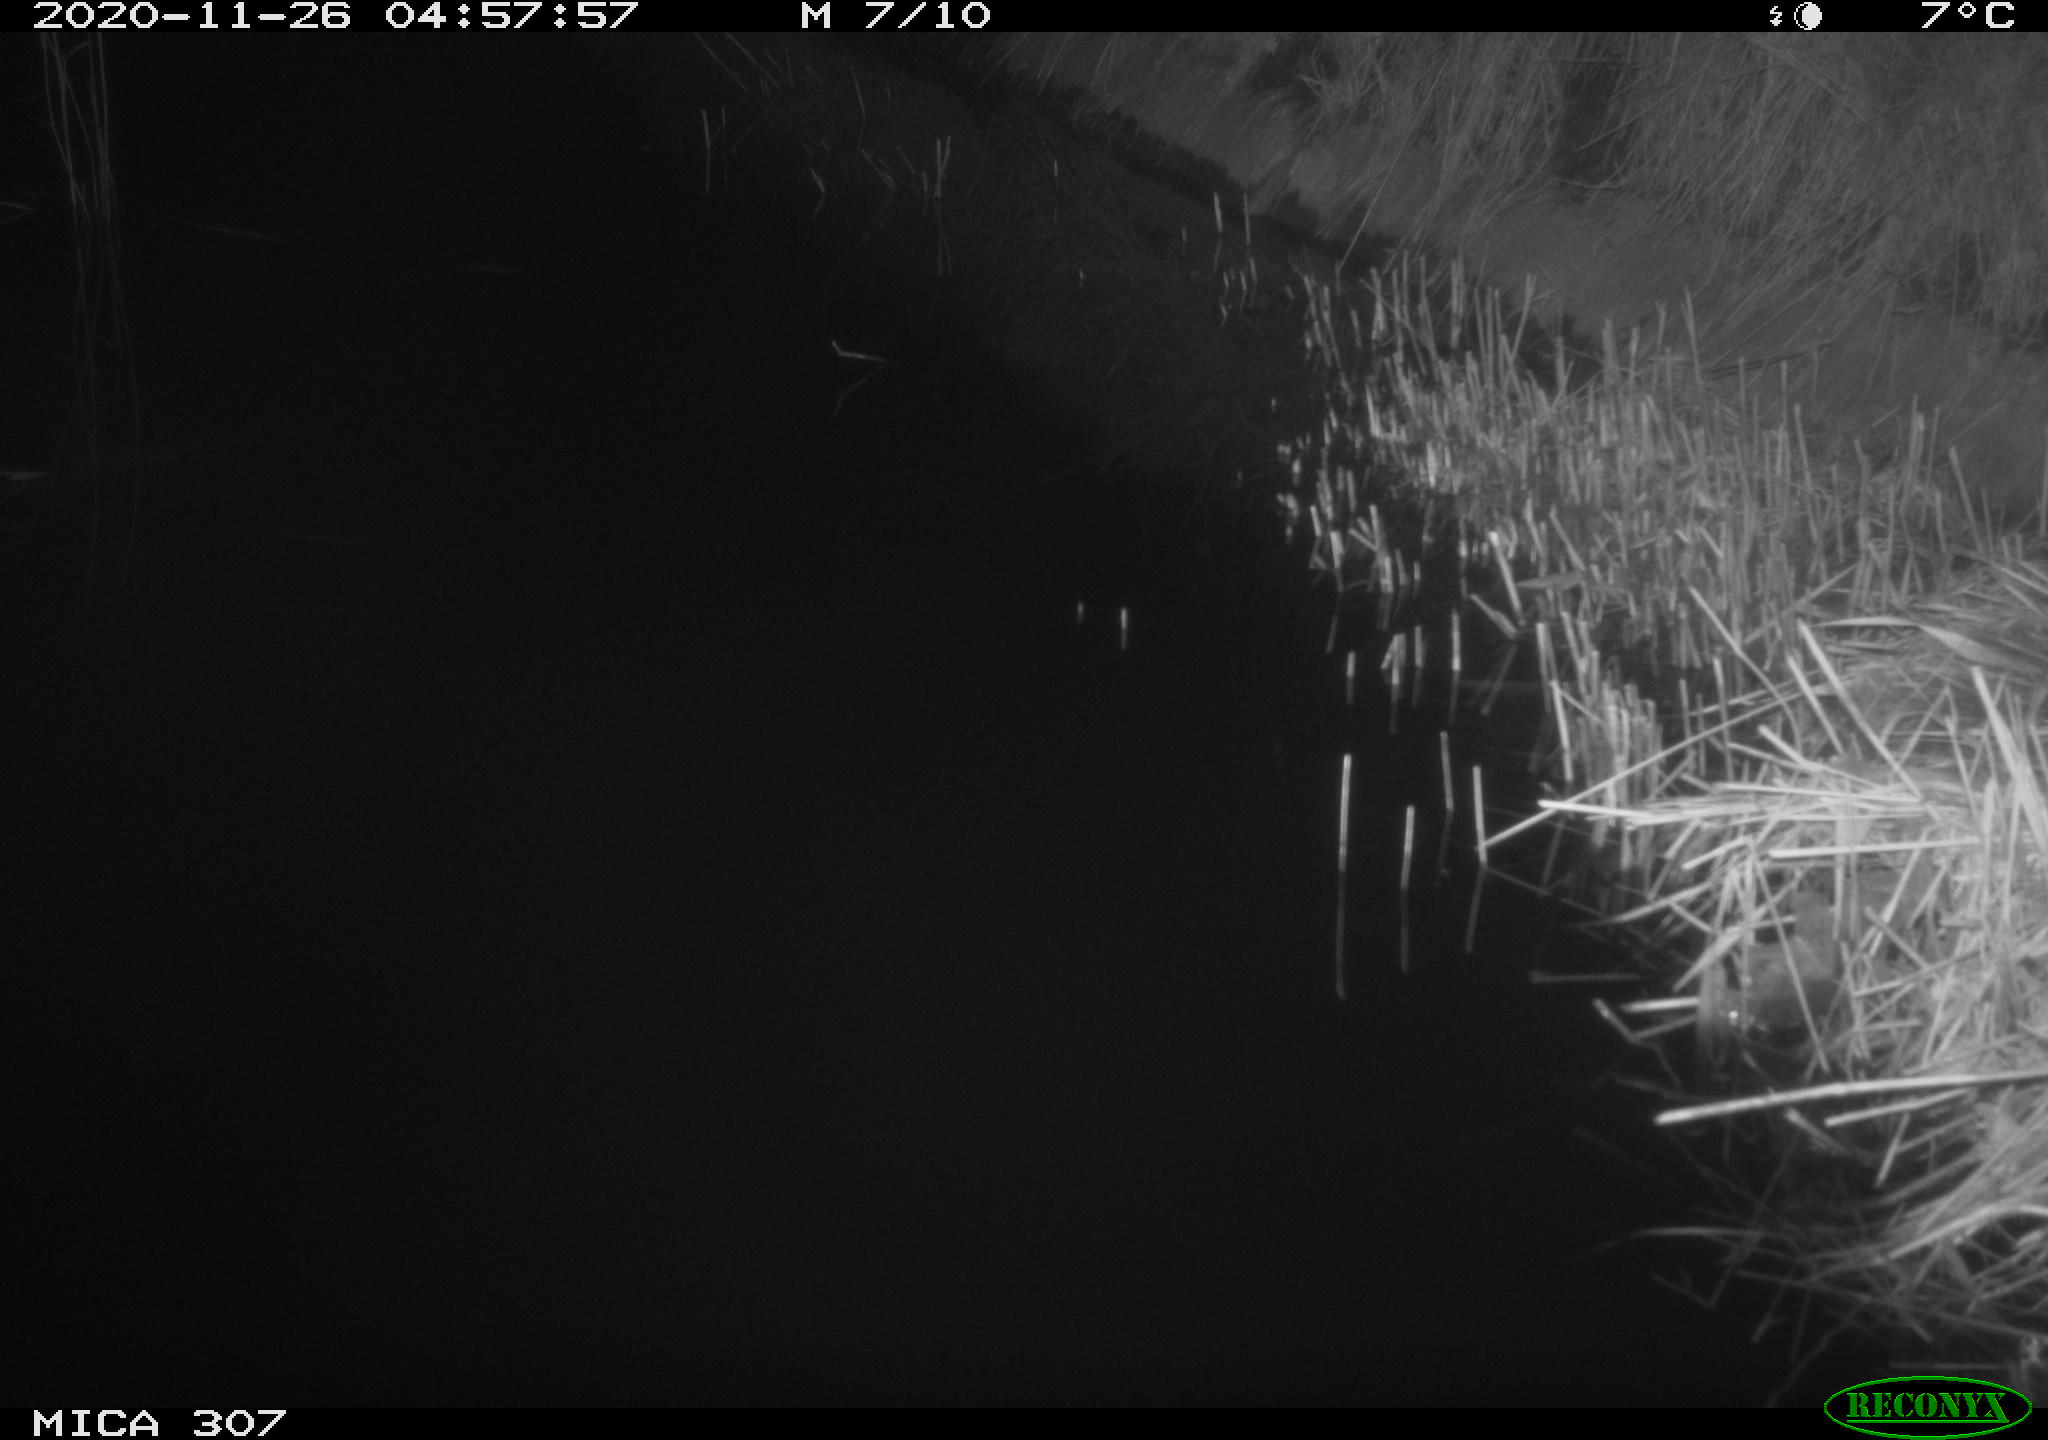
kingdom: Animalia
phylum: Chordata
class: Mammalia
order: Rodentia
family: Muridae
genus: Rattus
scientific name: Rattus norvegicus
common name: Brown rat
